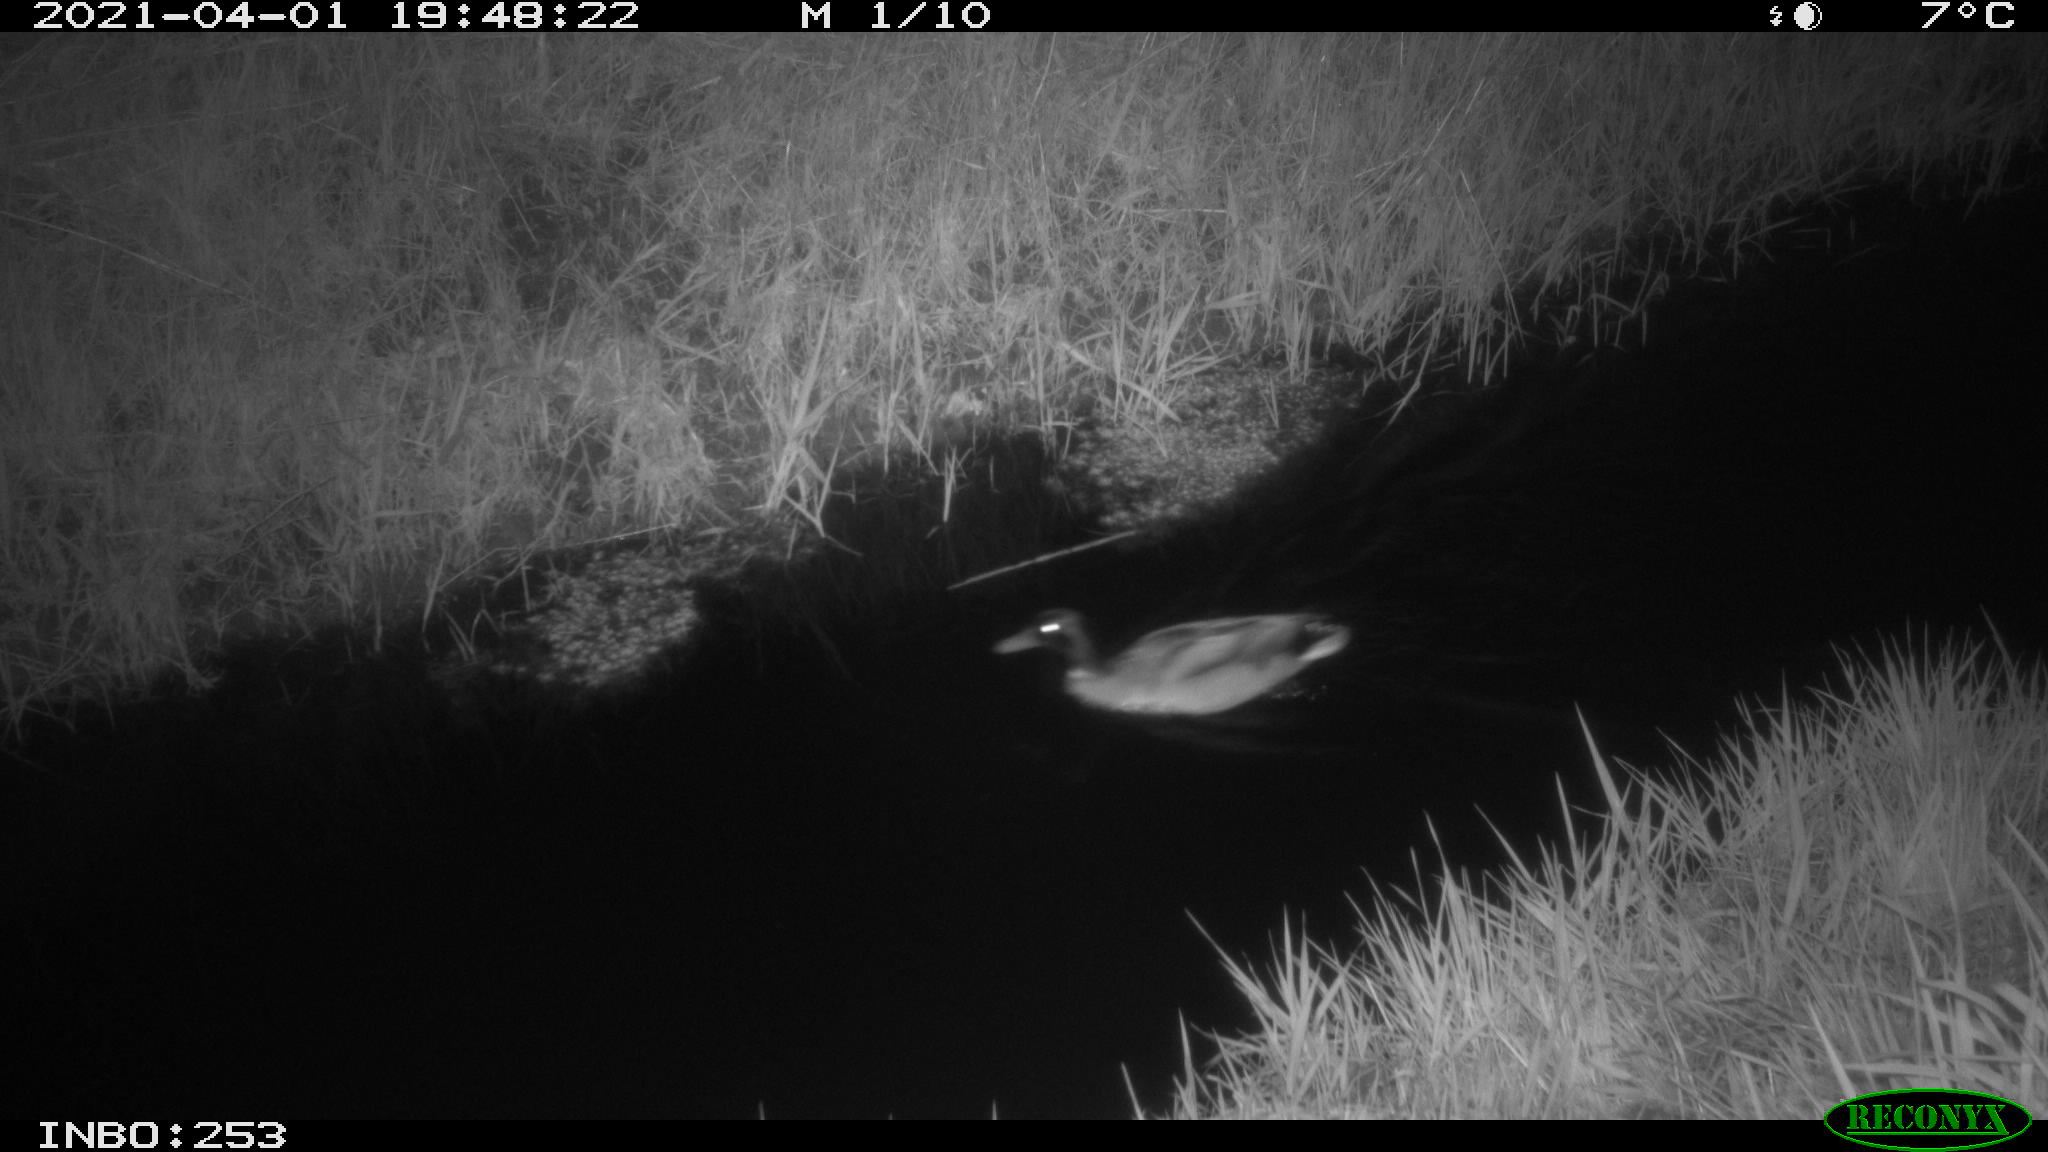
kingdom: Animalia
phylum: Chordata
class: Aves
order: Anseriformes
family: Anatidae
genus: Anas
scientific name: Anas platyrhynchos
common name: Mallard
